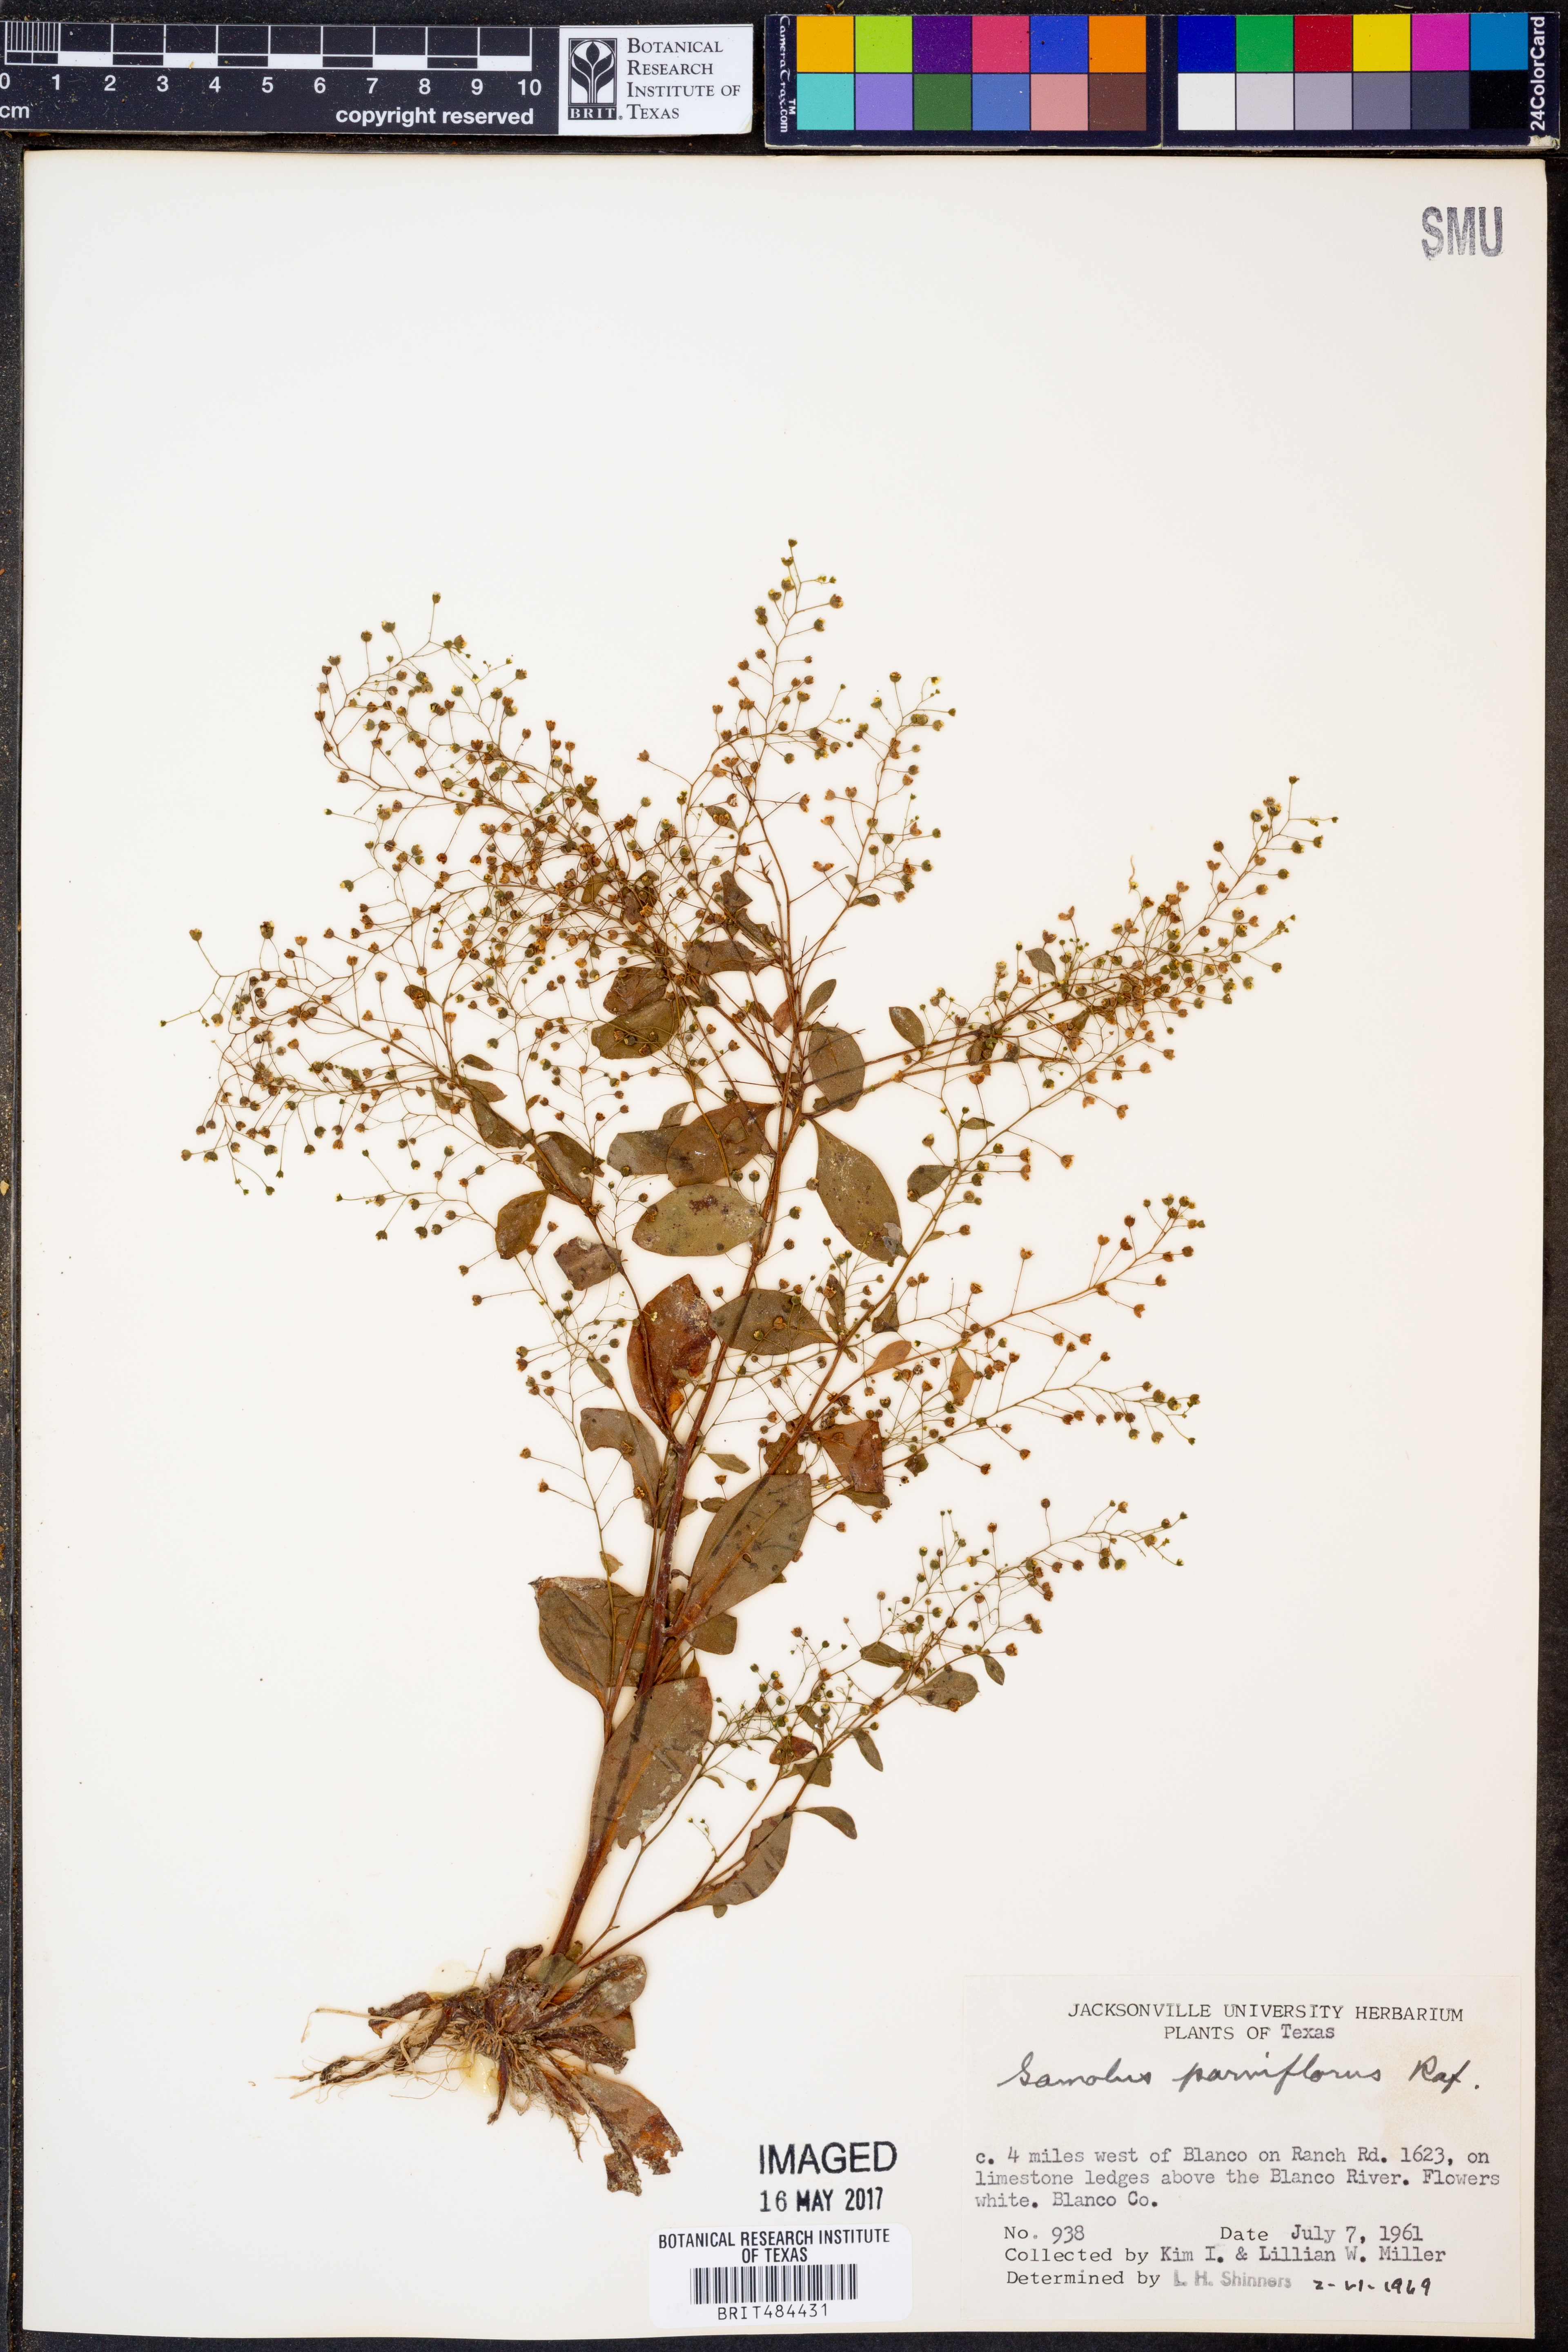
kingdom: Plantae
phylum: Tracheophyta
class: Magnoliopsida
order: Ericales
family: Primulaceae
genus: Samolus
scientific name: Samolus parviflorus
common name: False water pimpernel
